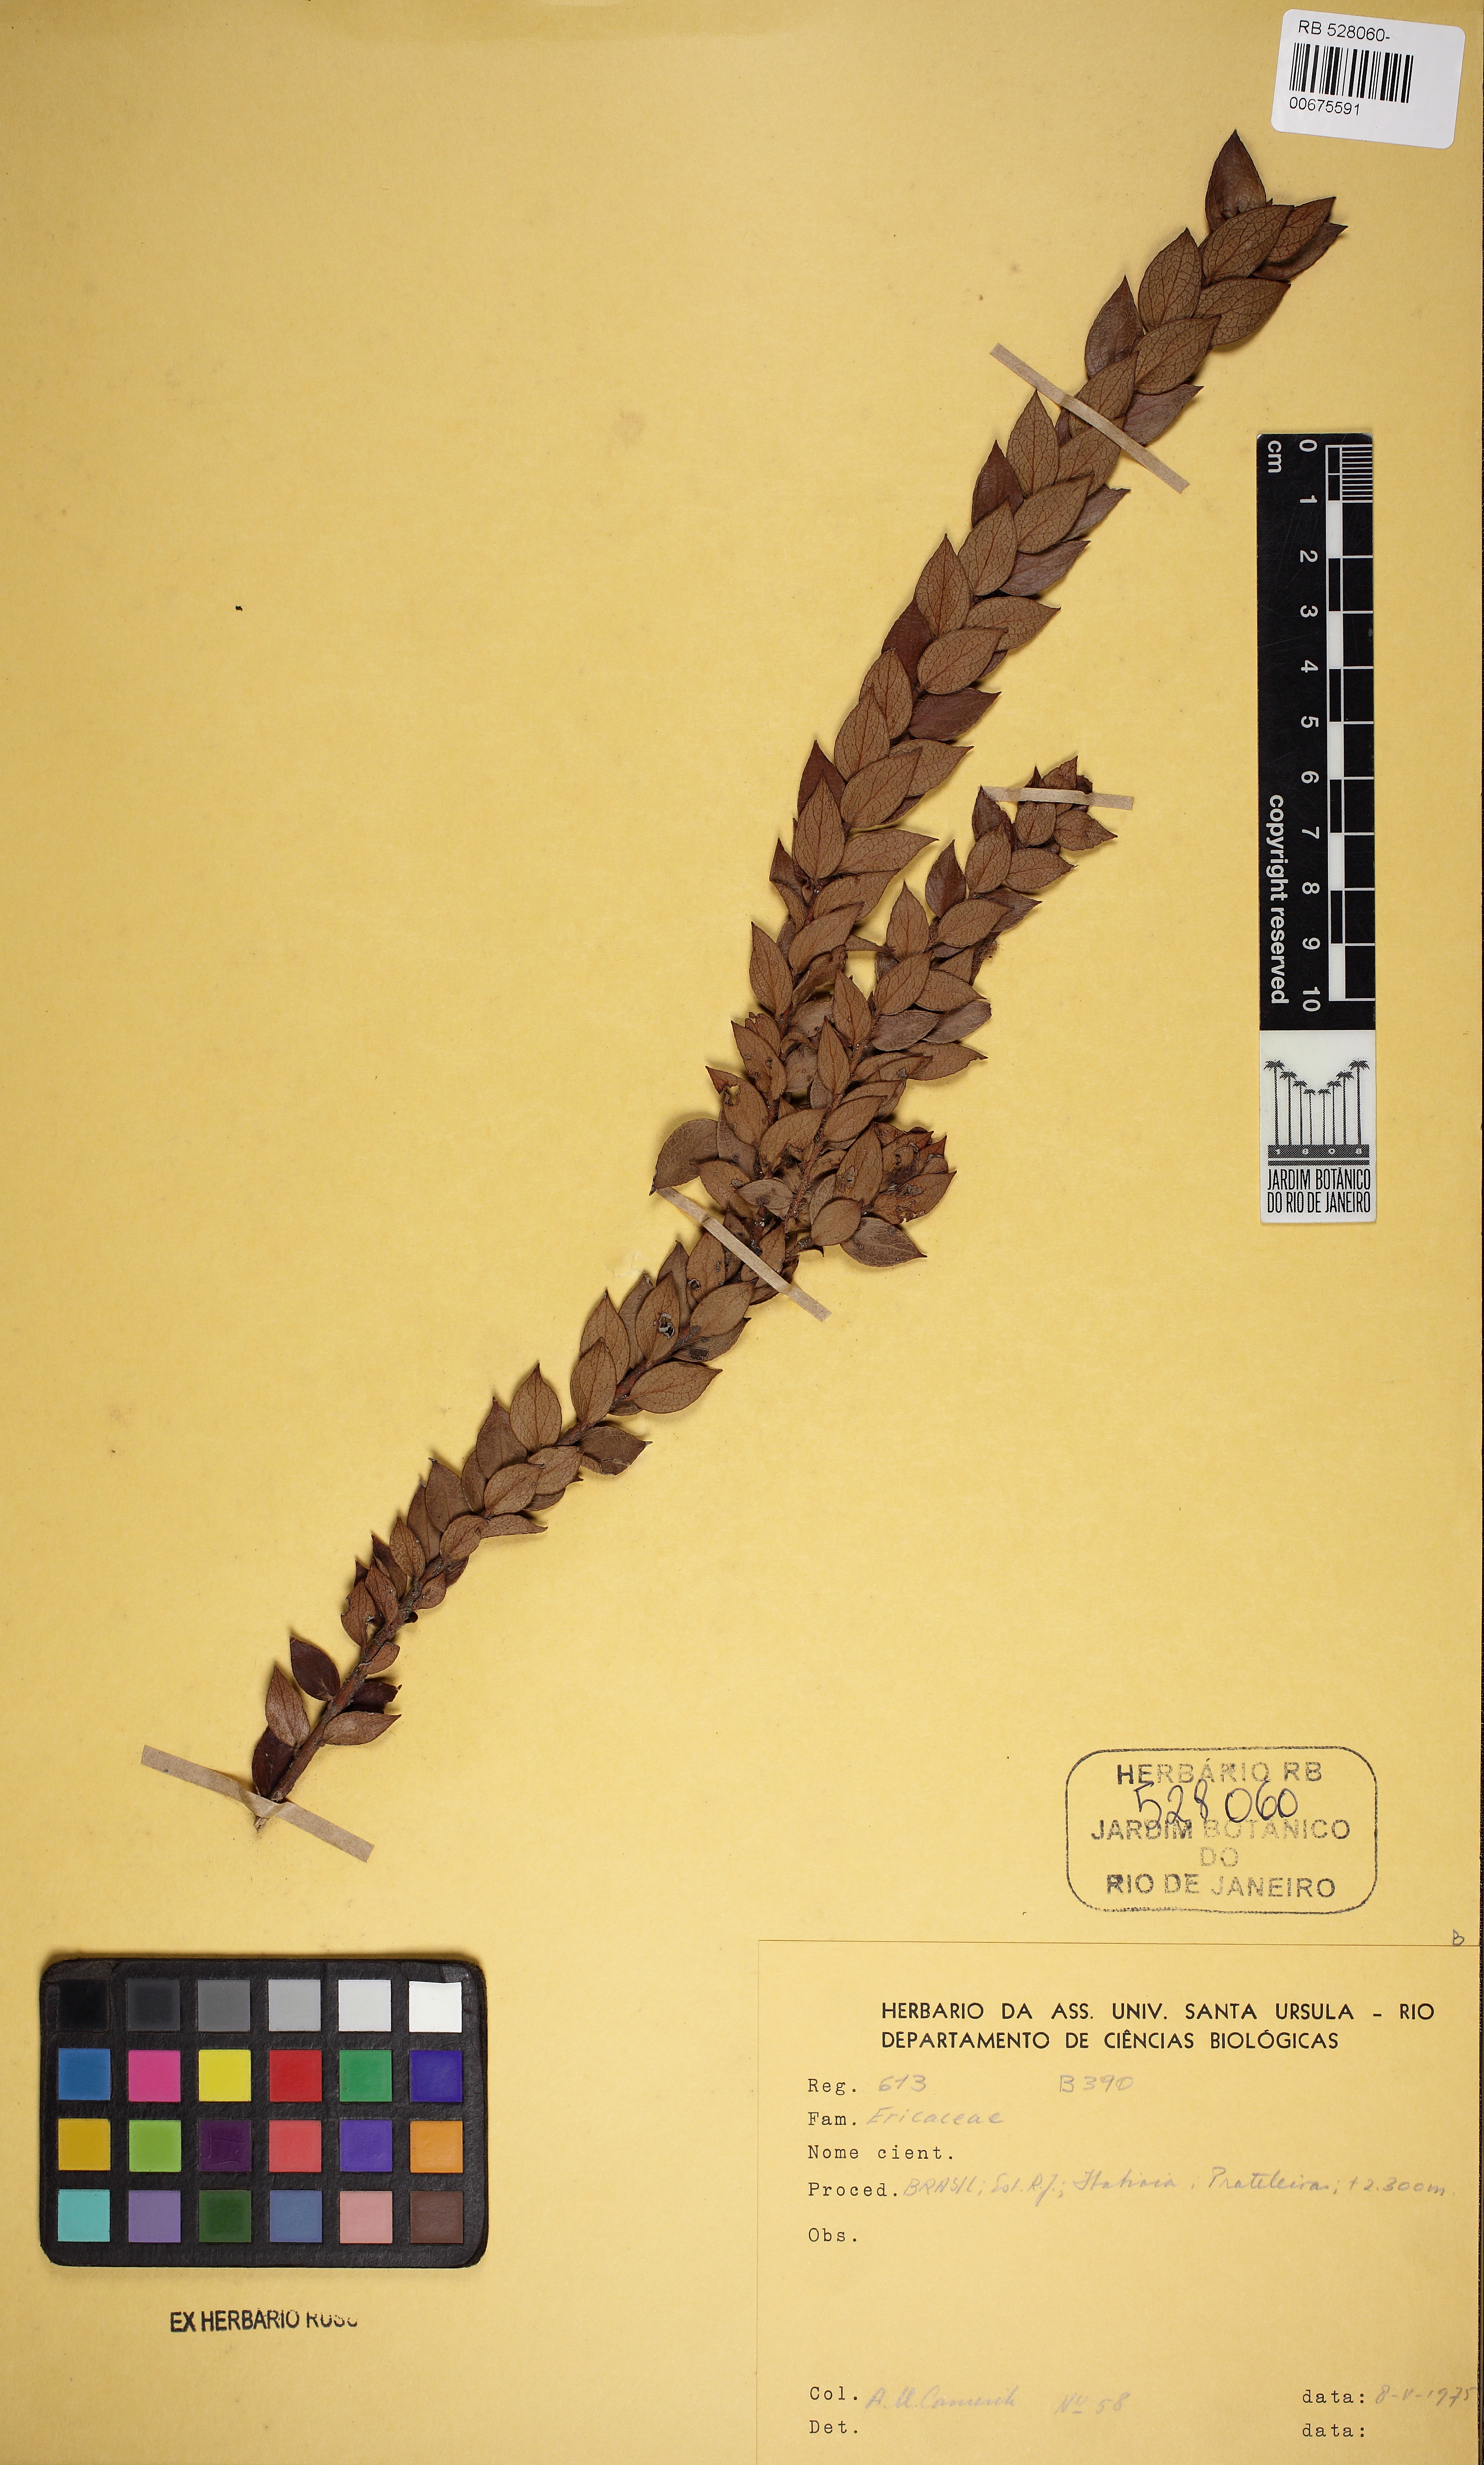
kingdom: Plantae
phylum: Tracheophyta
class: Magnoliopsida
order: Ericales
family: Ericaceae
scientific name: Ericaceae
